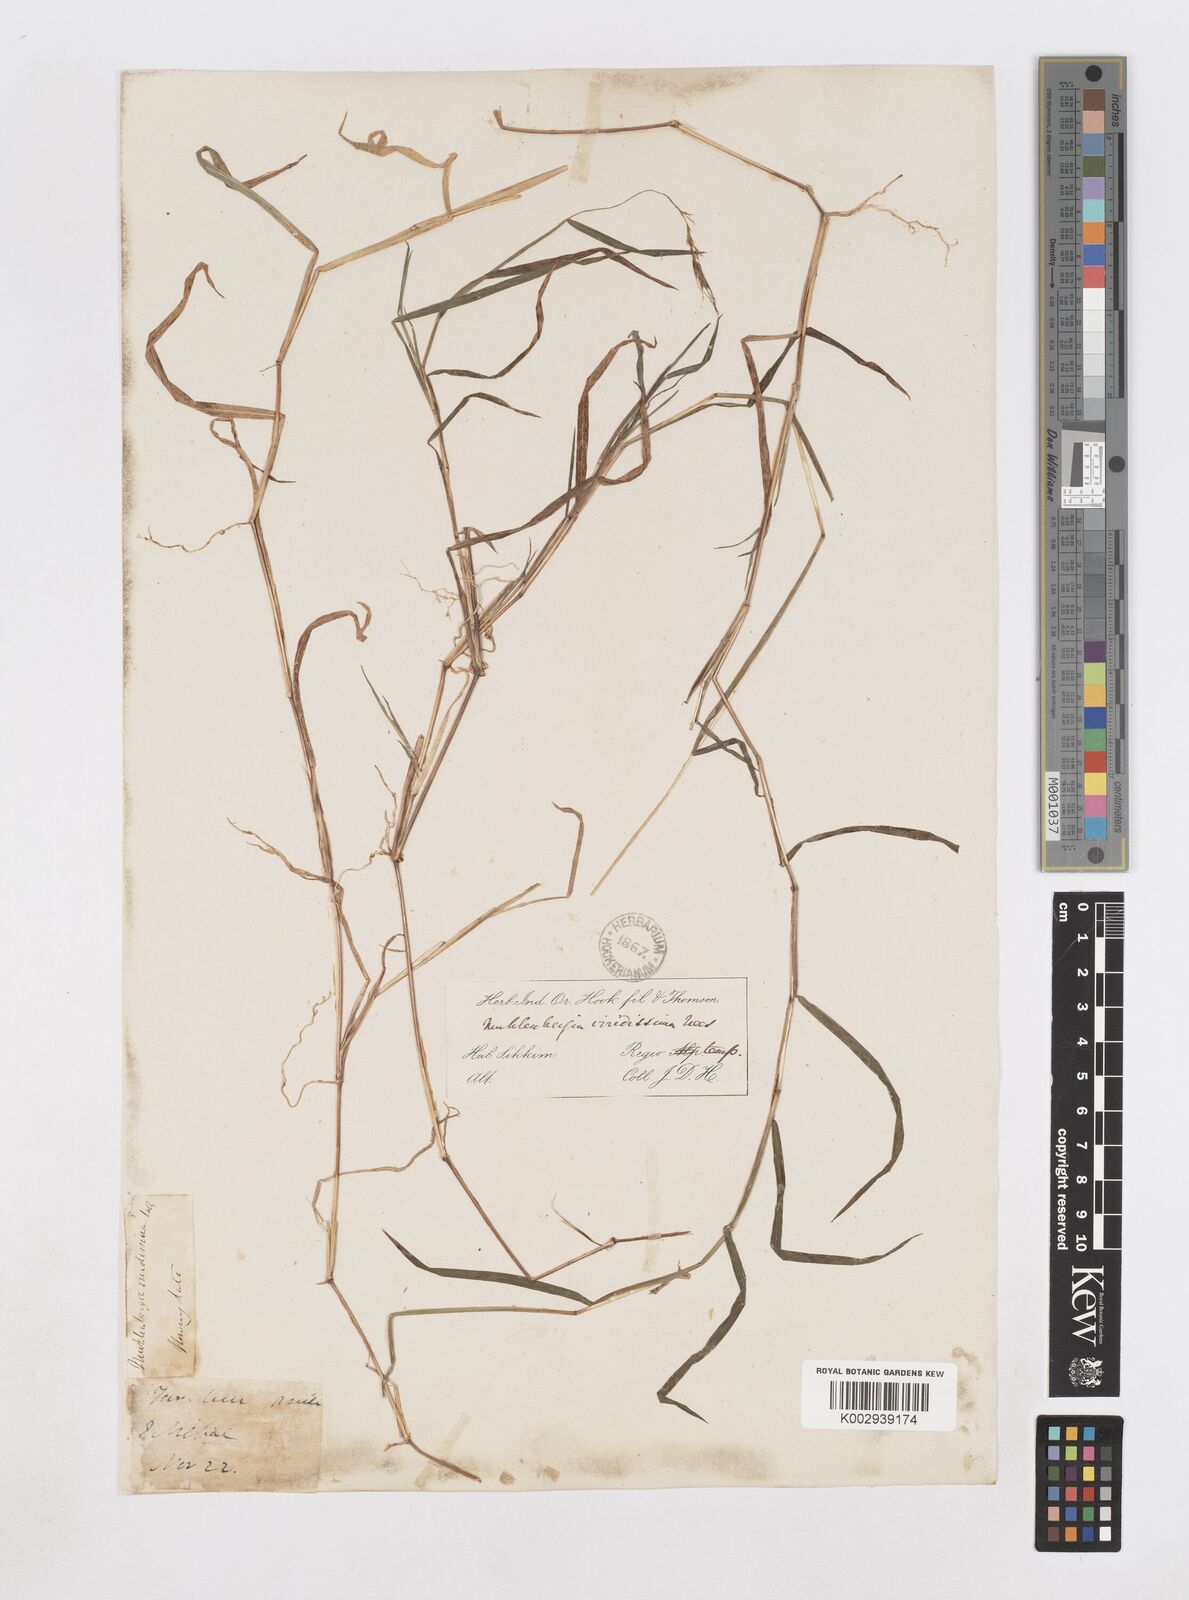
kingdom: Plantae
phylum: Tracheophyta
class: Liliopsida
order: Poales
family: Poaceae
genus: Muhlenbergia
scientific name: Muhlenbergia huegelii
